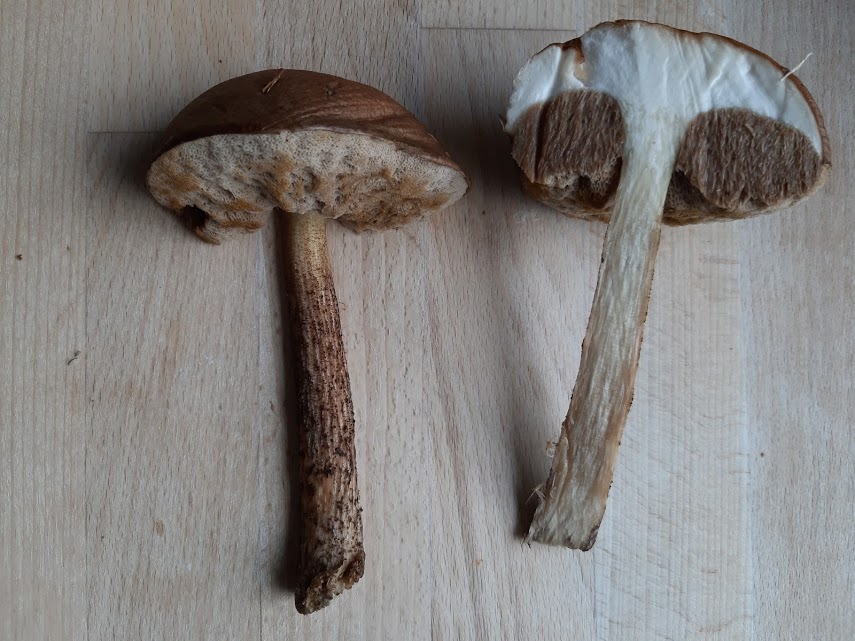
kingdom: Fungi
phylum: Basidiomycota
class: Agaricomycetes
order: Boletales
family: Boletaceae
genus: Leccinellum
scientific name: Leccinellum
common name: skælrørhat
